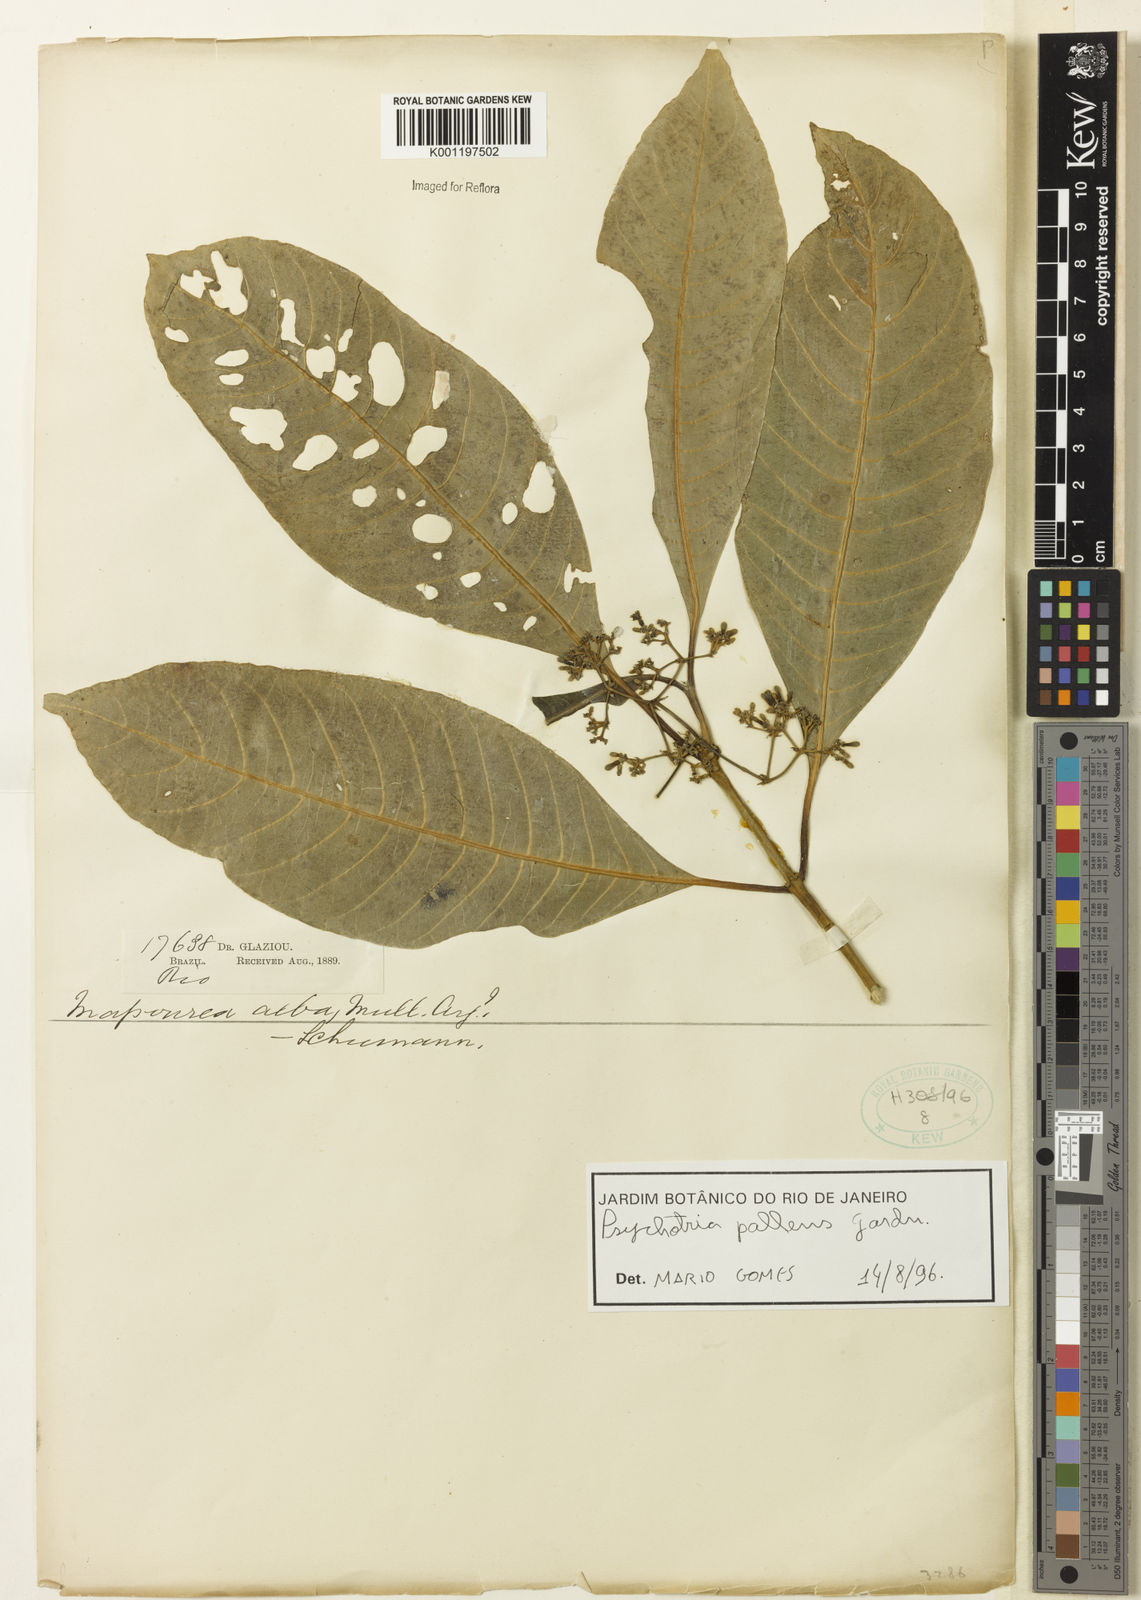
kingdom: Plantae
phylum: Tracheophyta
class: Magnoliopsida
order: Gentianales
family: Rubiaceae
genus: Psychotria
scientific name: Psychotria pallens
